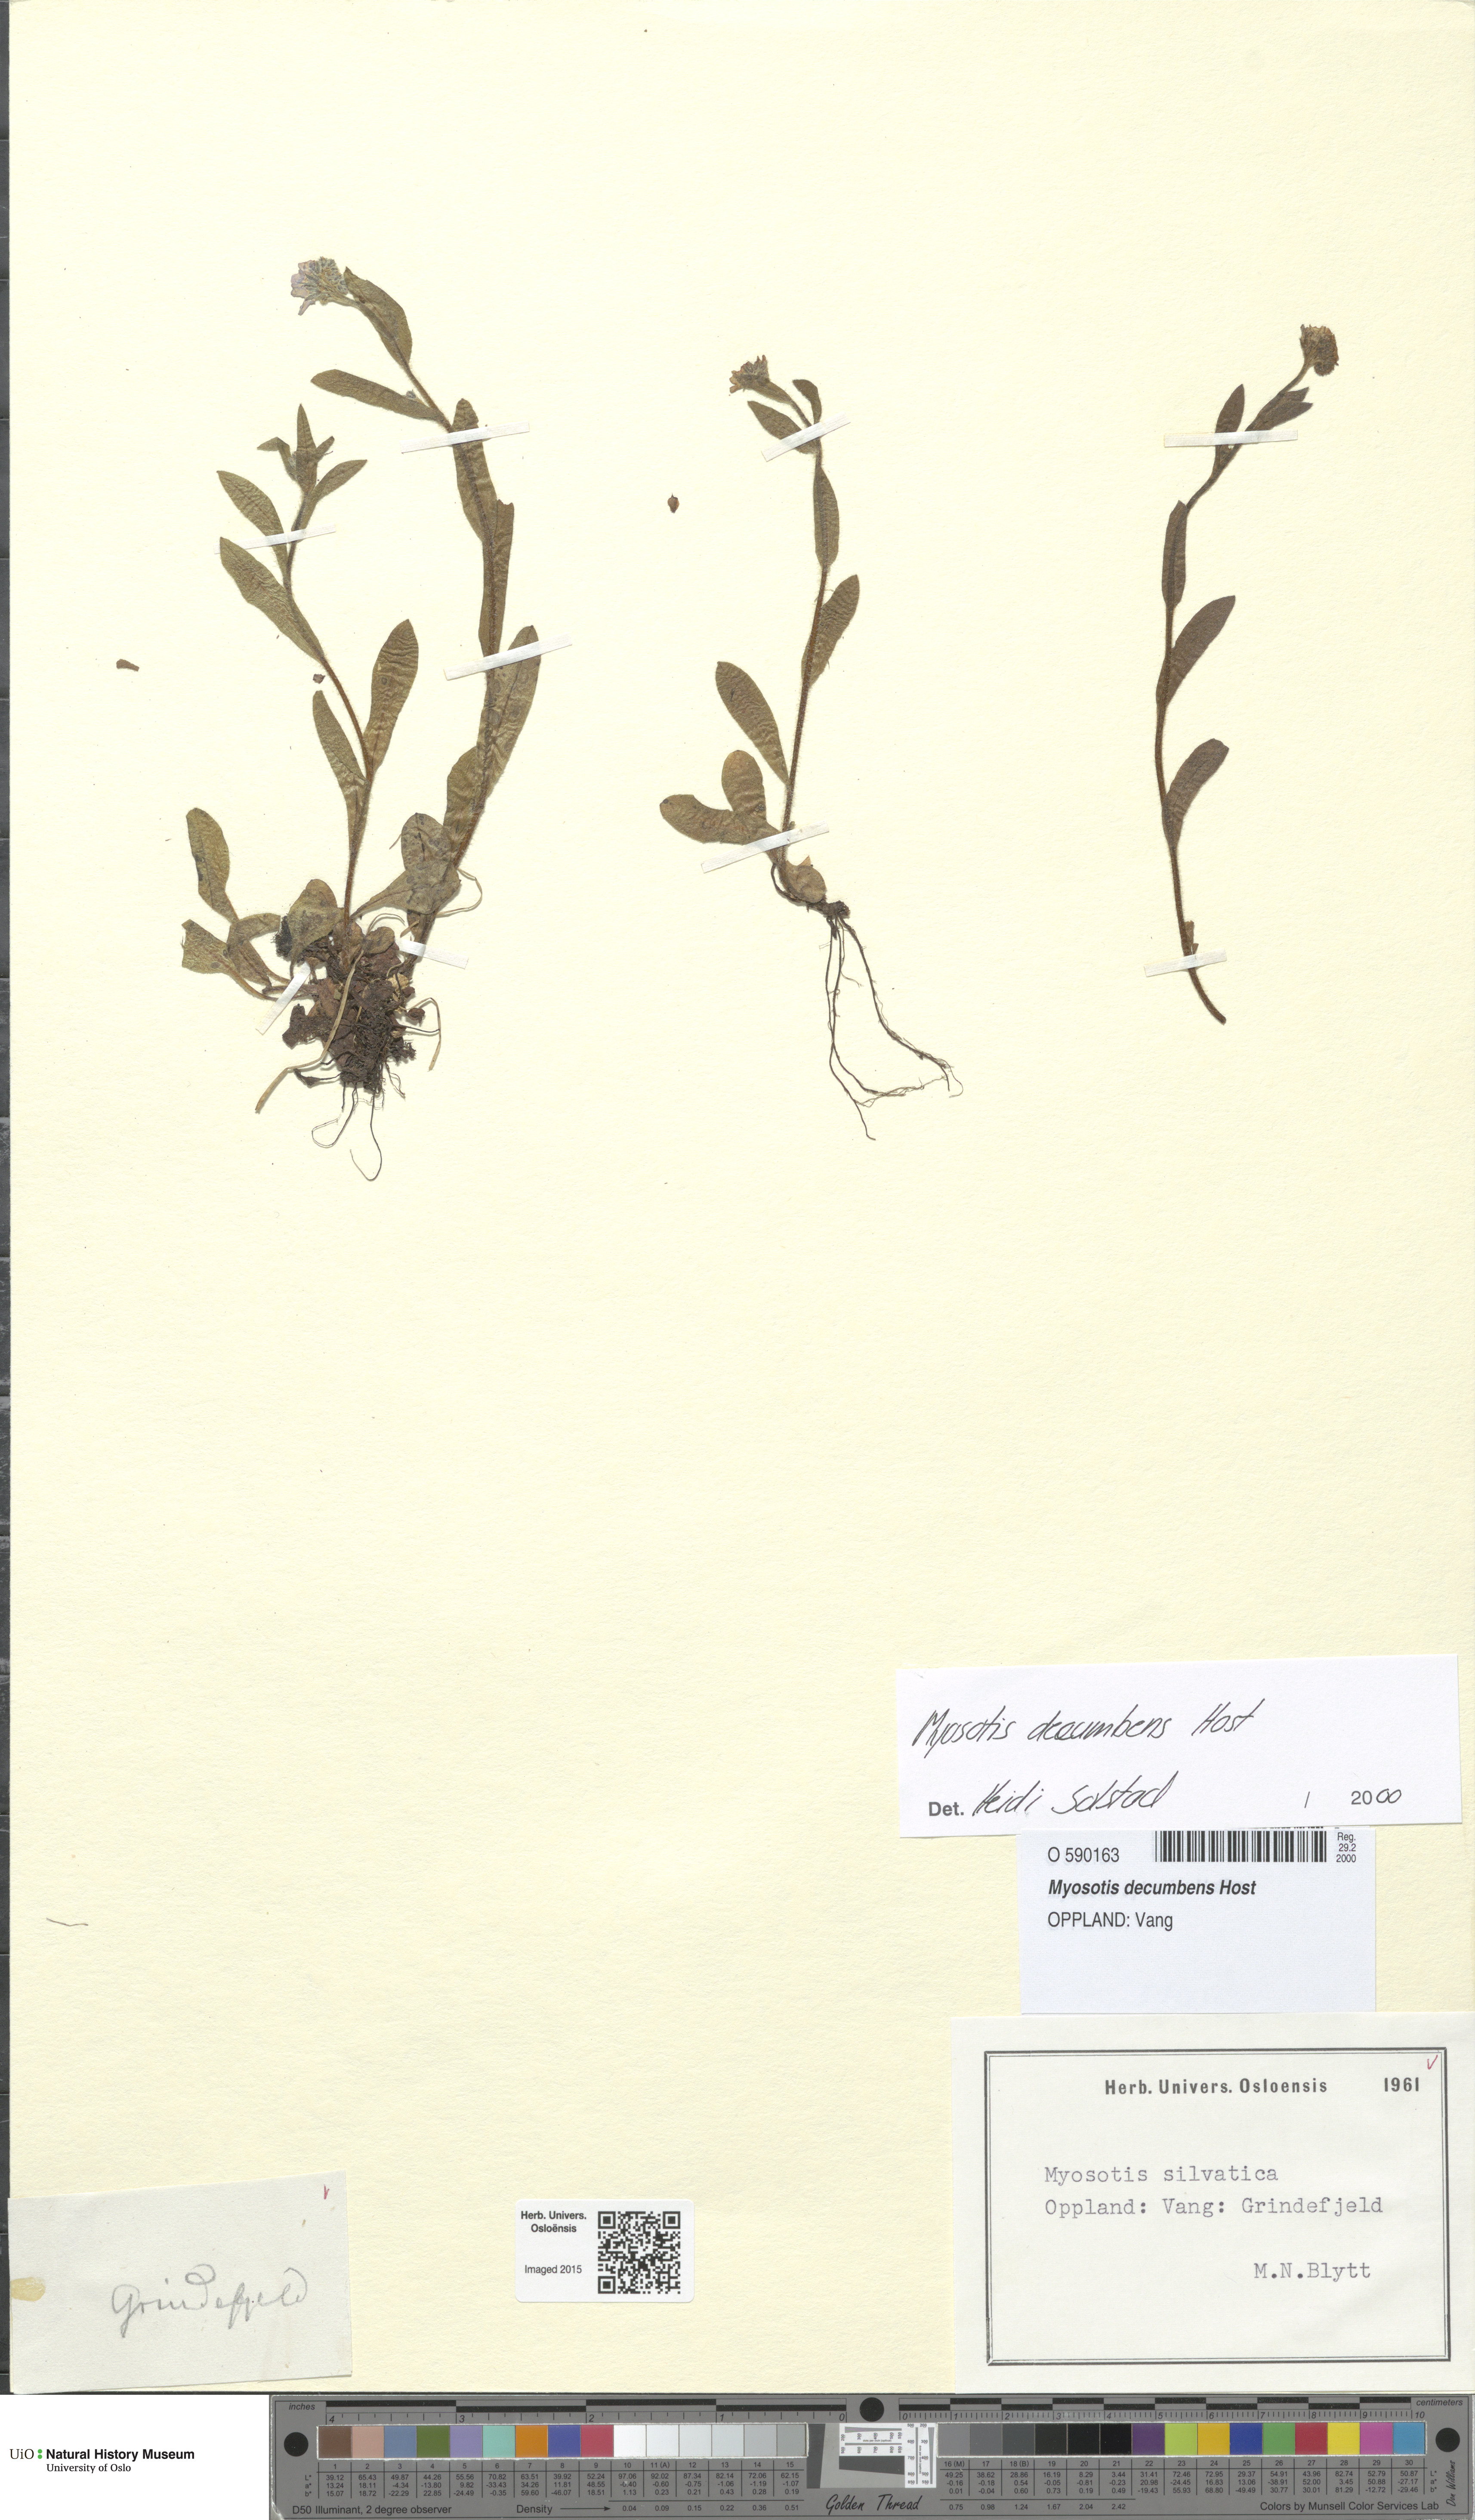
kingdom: Plantae
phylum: Tracheophyta
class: Magnoliopsida
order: Boraginales
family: Boraginaceae
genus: Myosotis
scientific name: Myosotis decumbens
